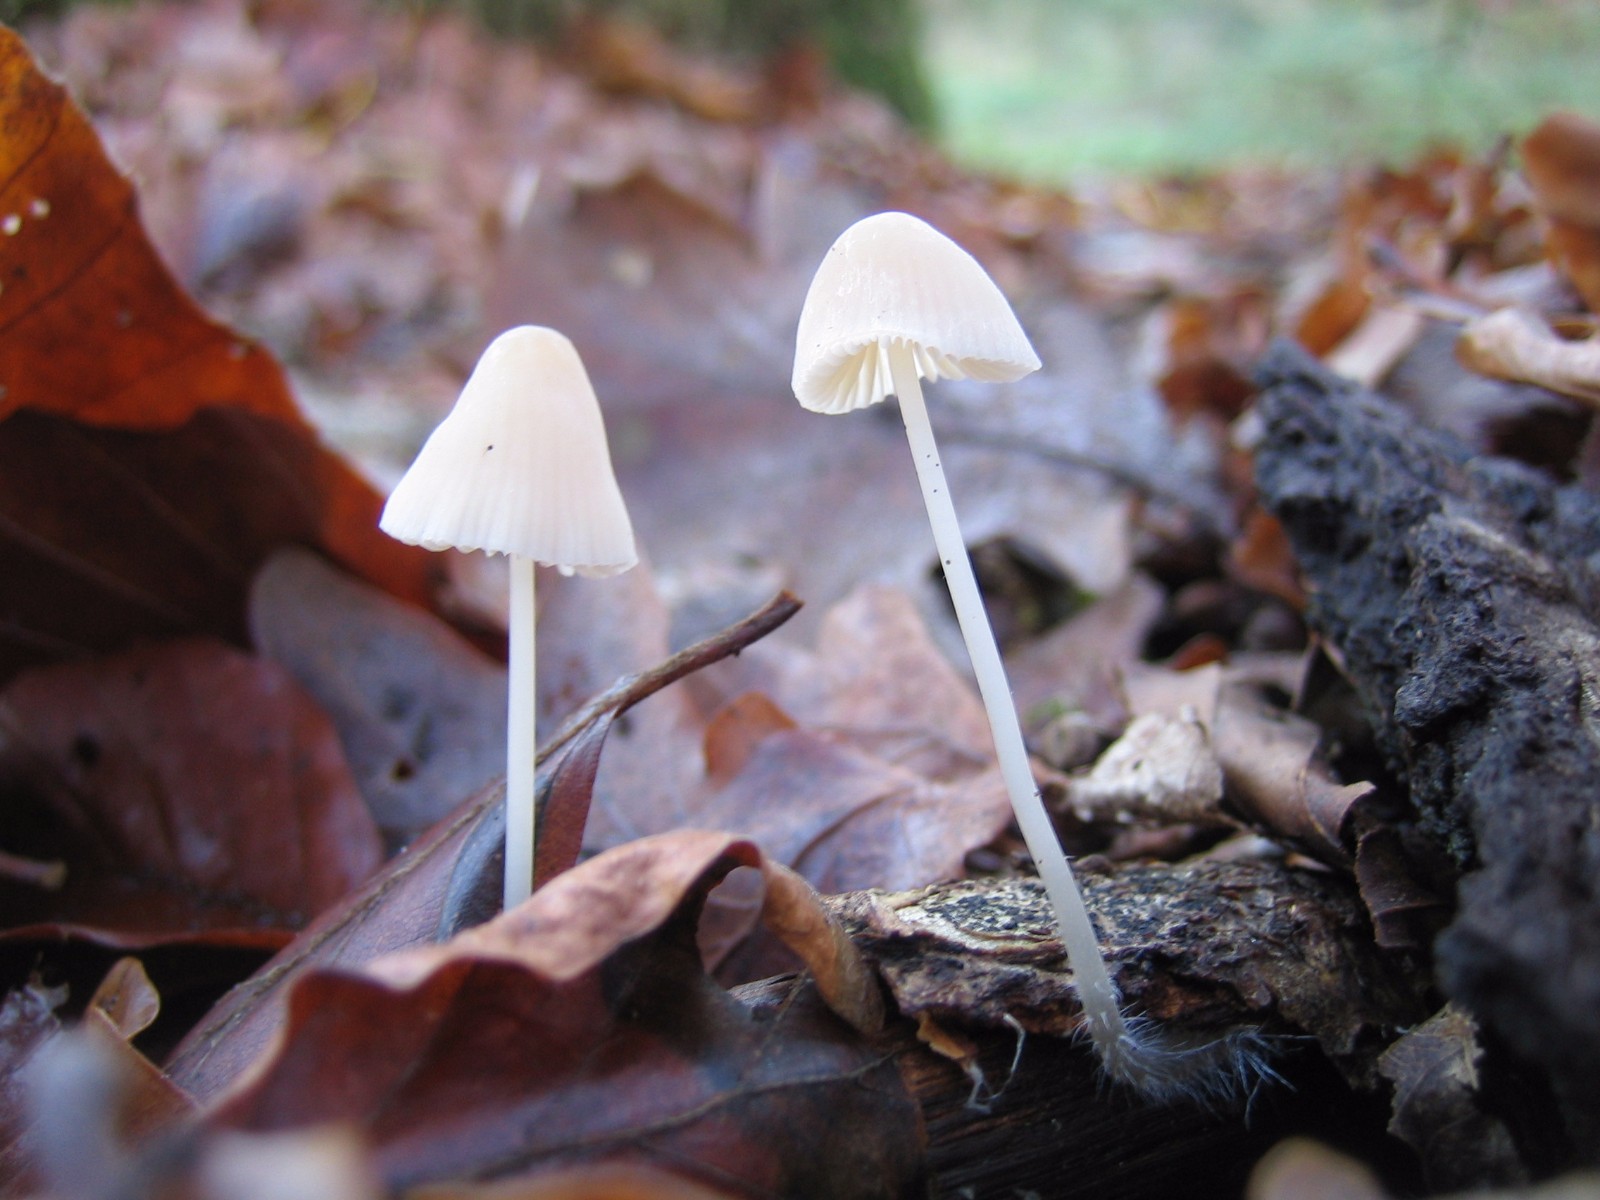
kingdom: Fungi
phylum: Basidiomycota
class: Agaricomycetes
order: Agaricales
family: Mycenaceae
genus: Mycena
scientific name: Mycena
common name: huesvamp
